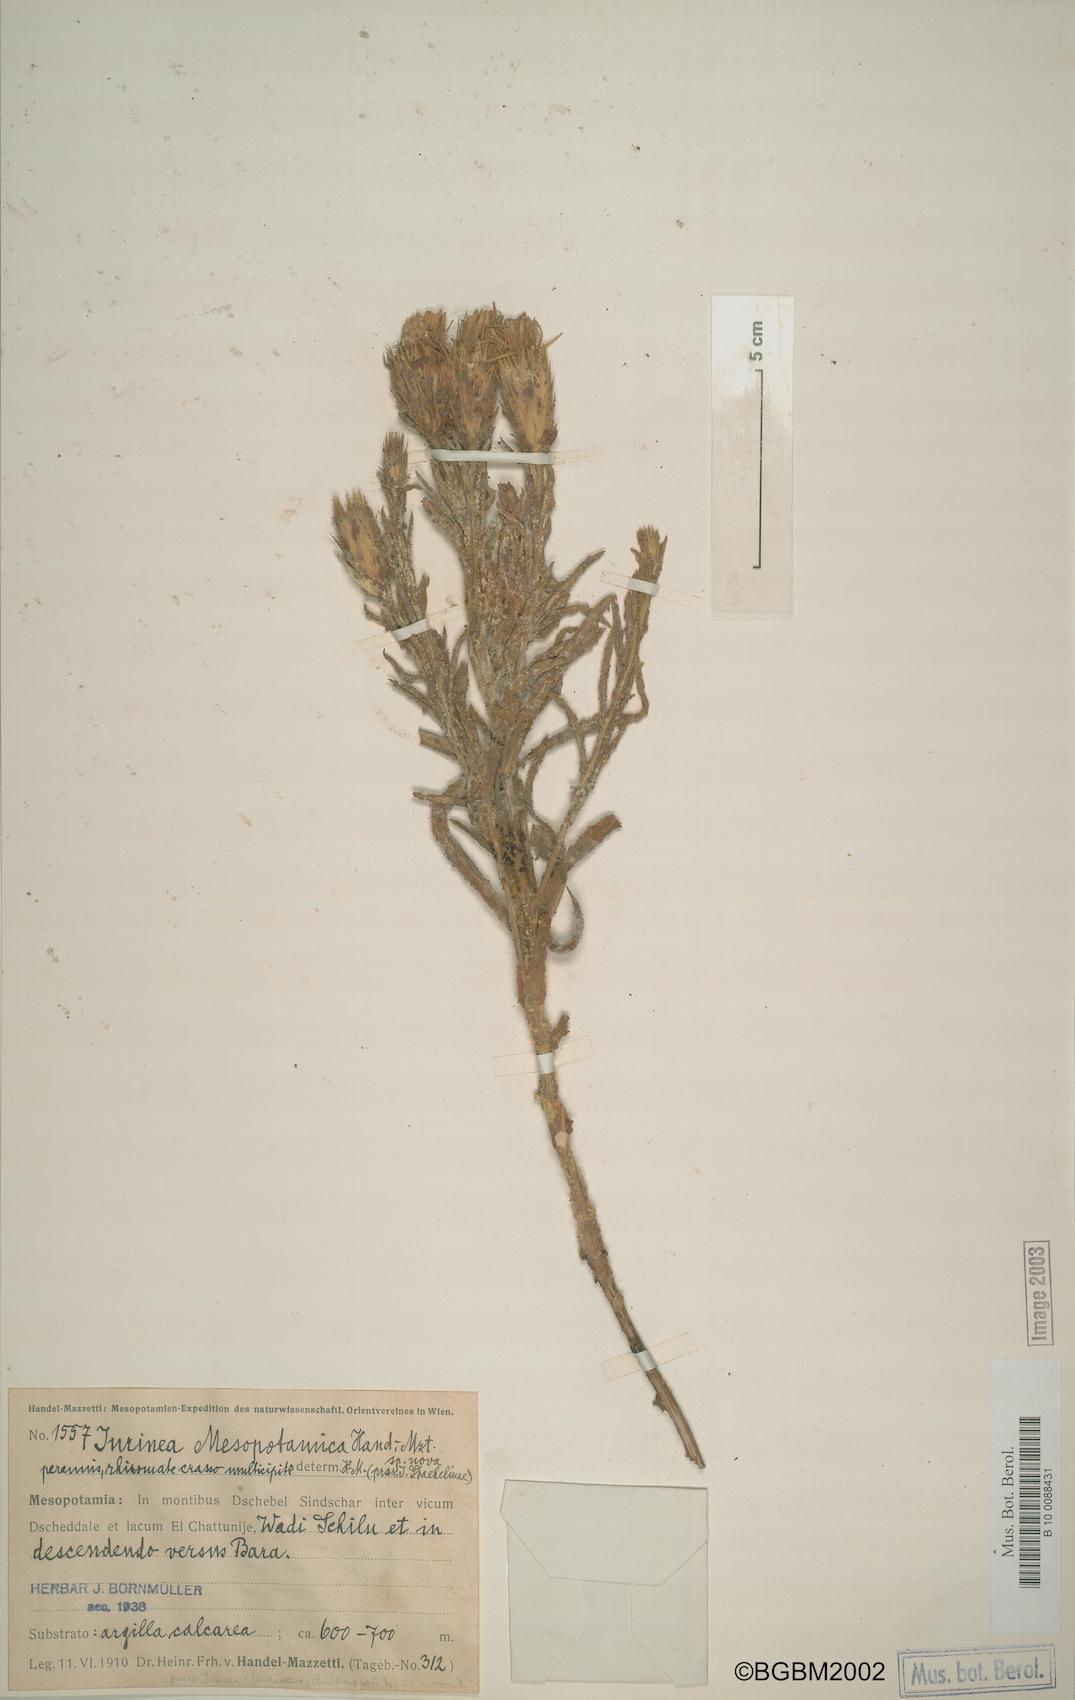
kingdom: Plantae
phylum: Tracheophyta
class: Magnoliopsida
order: Asterales
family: Asteraceae
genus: Jurinea
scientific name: Jurinea mesopotamica
